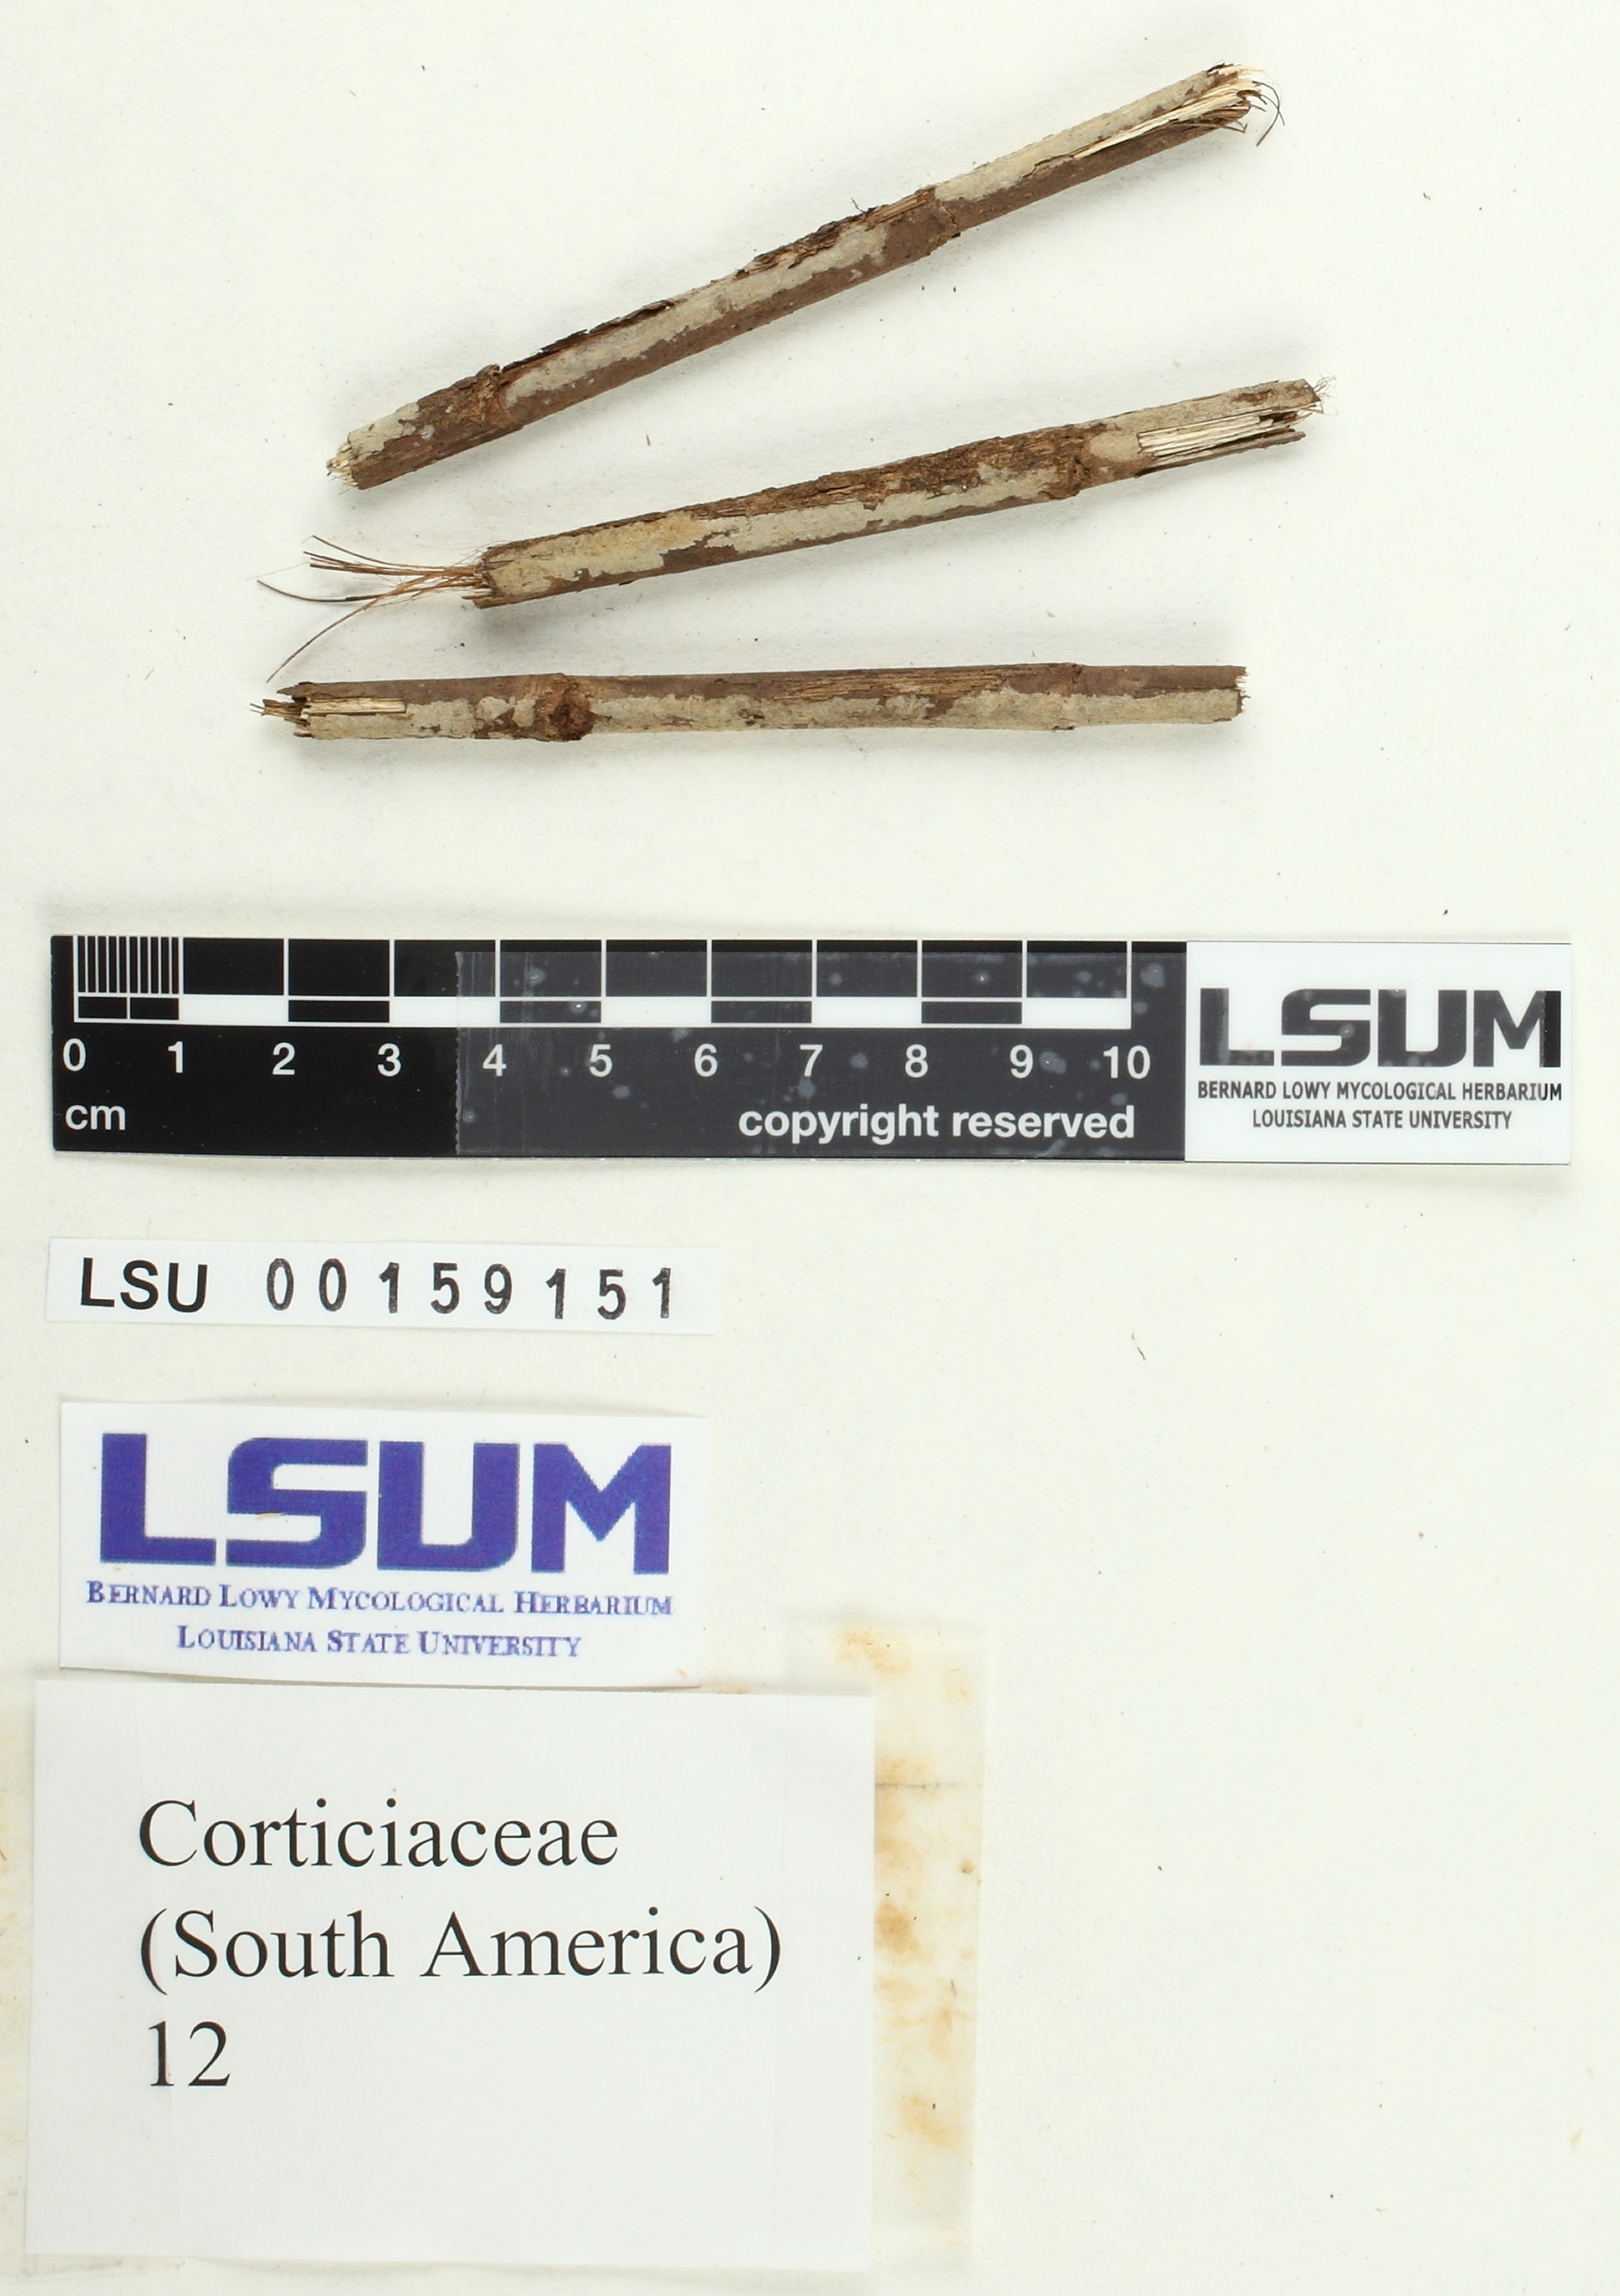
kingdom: Fungi
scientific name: Fungi
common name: Fungi
